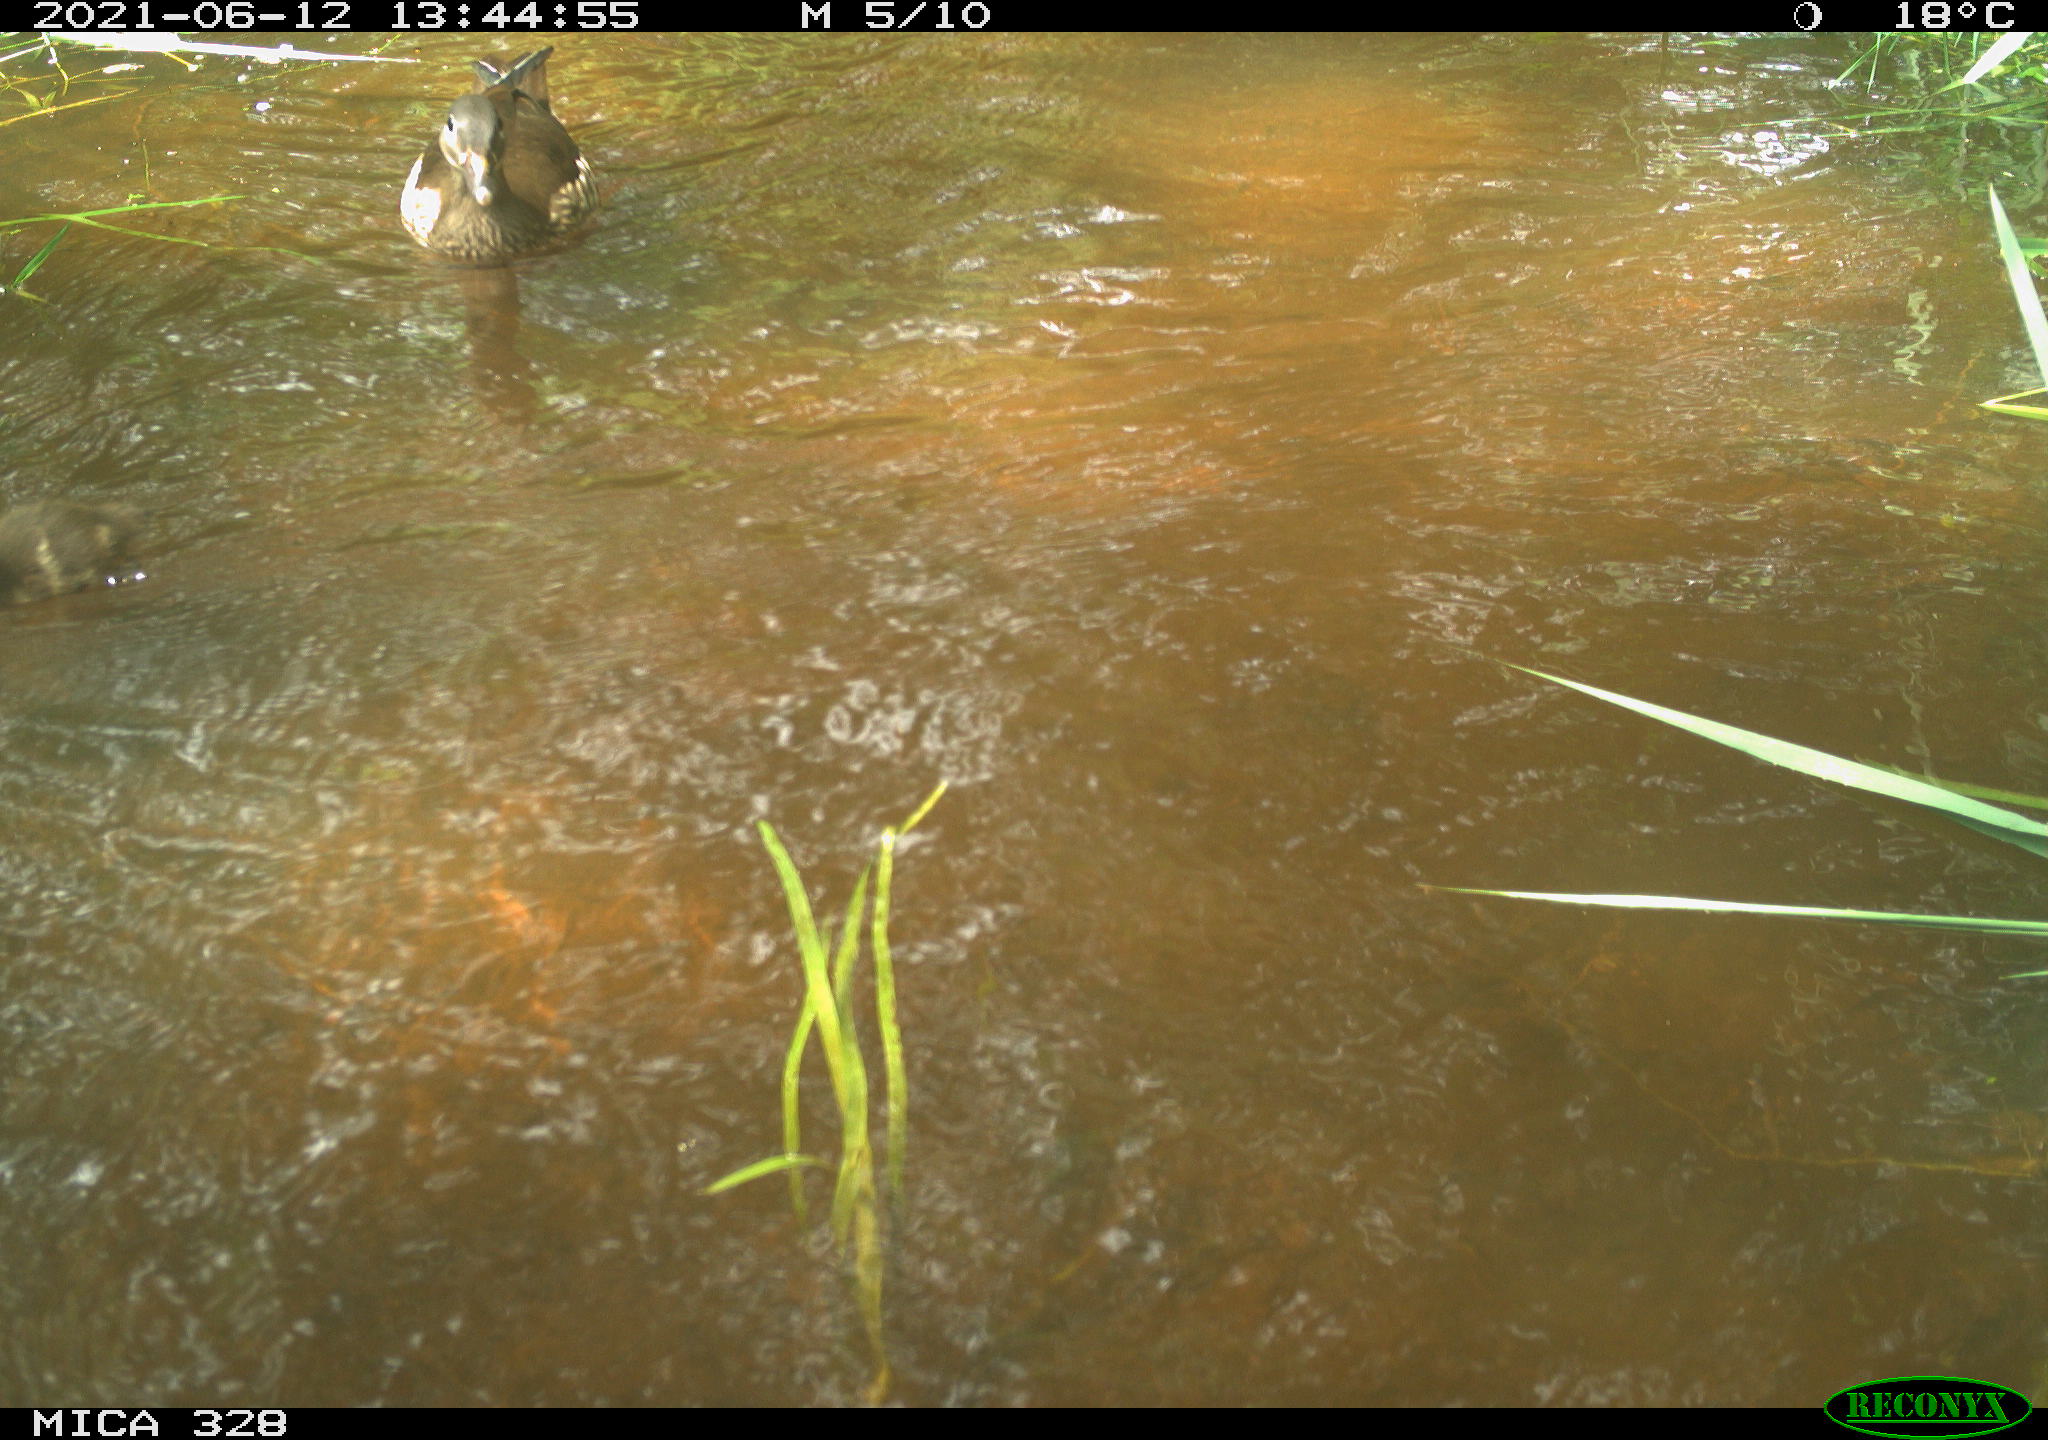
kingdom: Animalia
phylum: Chordata
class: Aves
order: Anseriformes
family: Anatidae
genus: Aix
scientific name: Aix galericulata
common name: Mandarin duck
